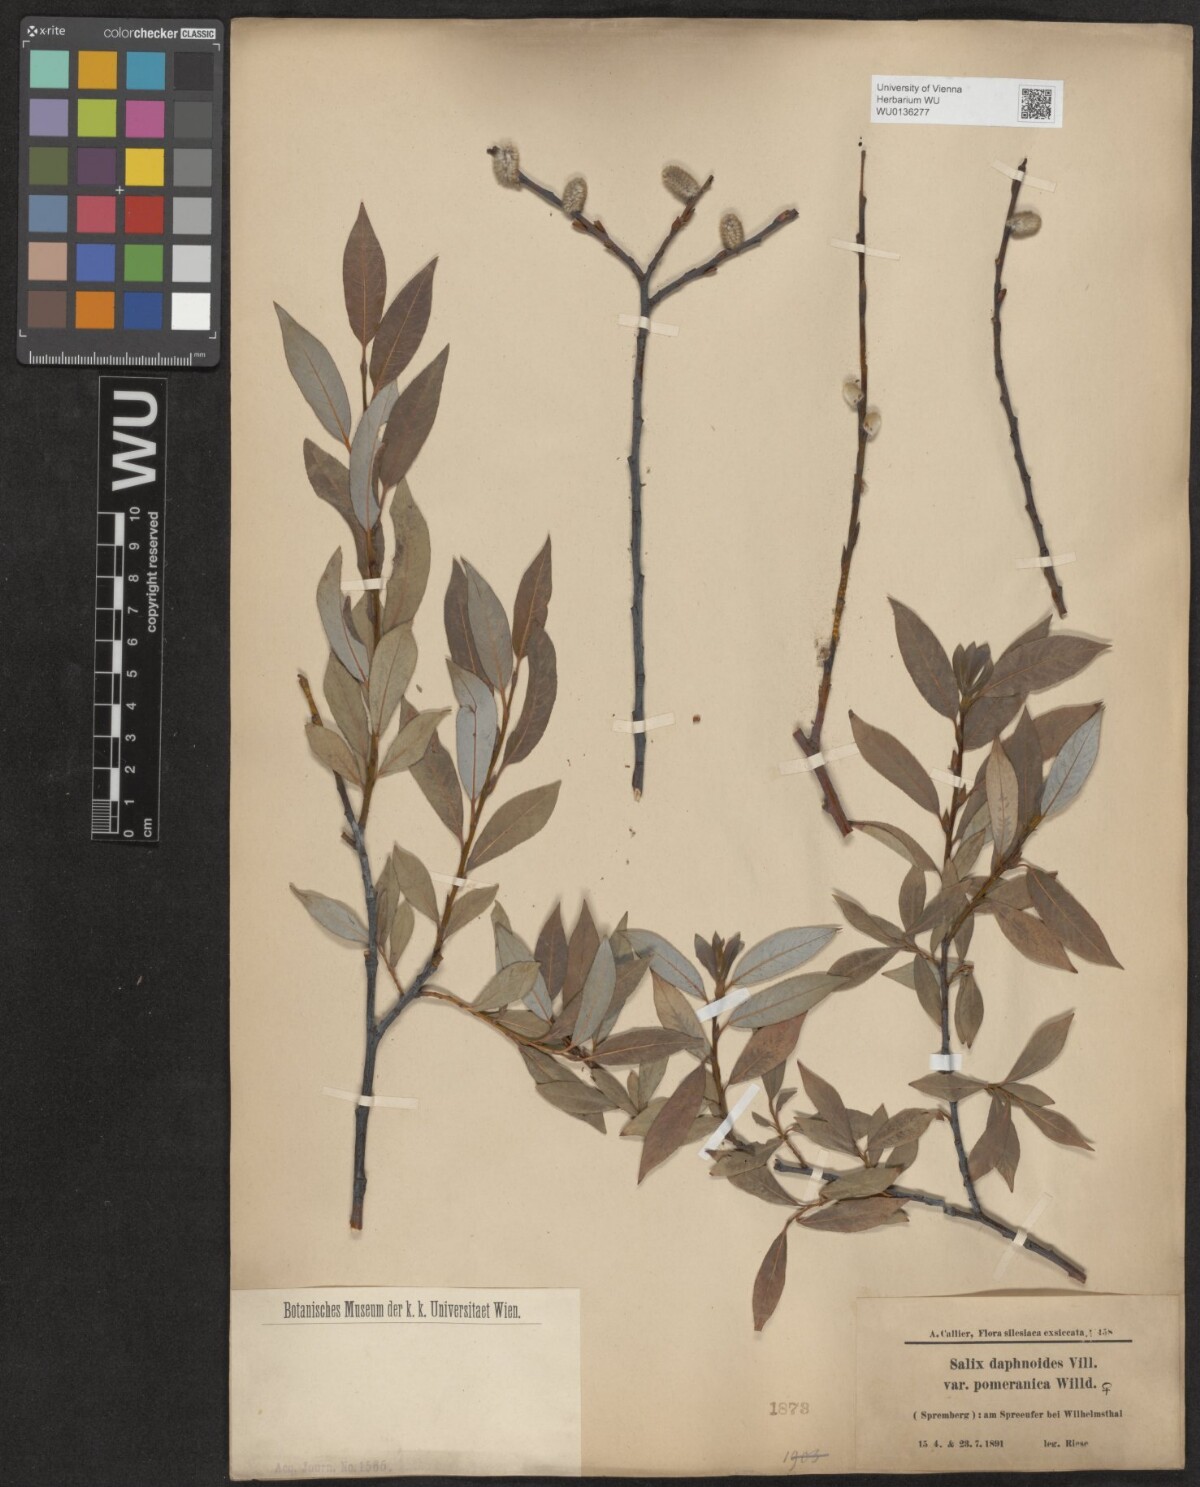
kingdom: Plantae
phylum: Tracheophyta
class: Magnoliopsida
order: Malpighiales
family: Salicaceae
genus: Salix
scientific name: Salix daphnoides
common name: European violet-willow
